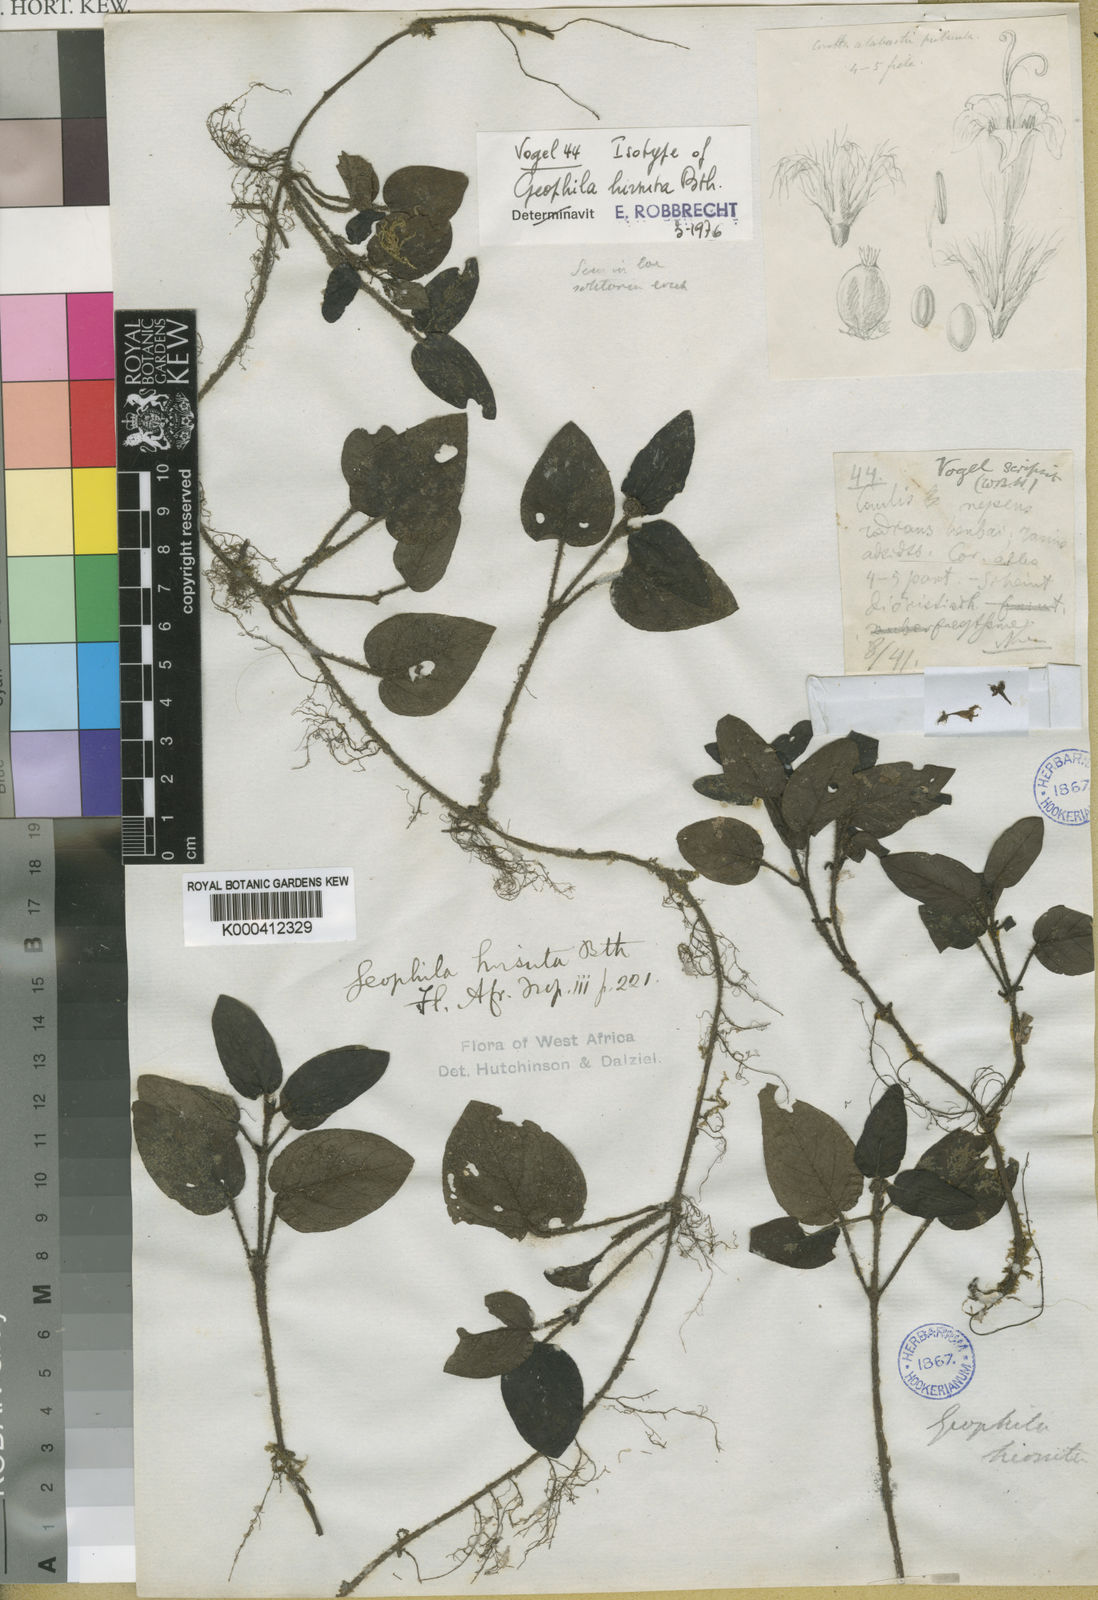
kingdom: Plantae
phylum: Tracheophyta
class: Magnoliopsida
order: Gentianales
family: Rubiaceae
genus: Hymenocoleus
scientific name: Hymenocoleus hirsutus
